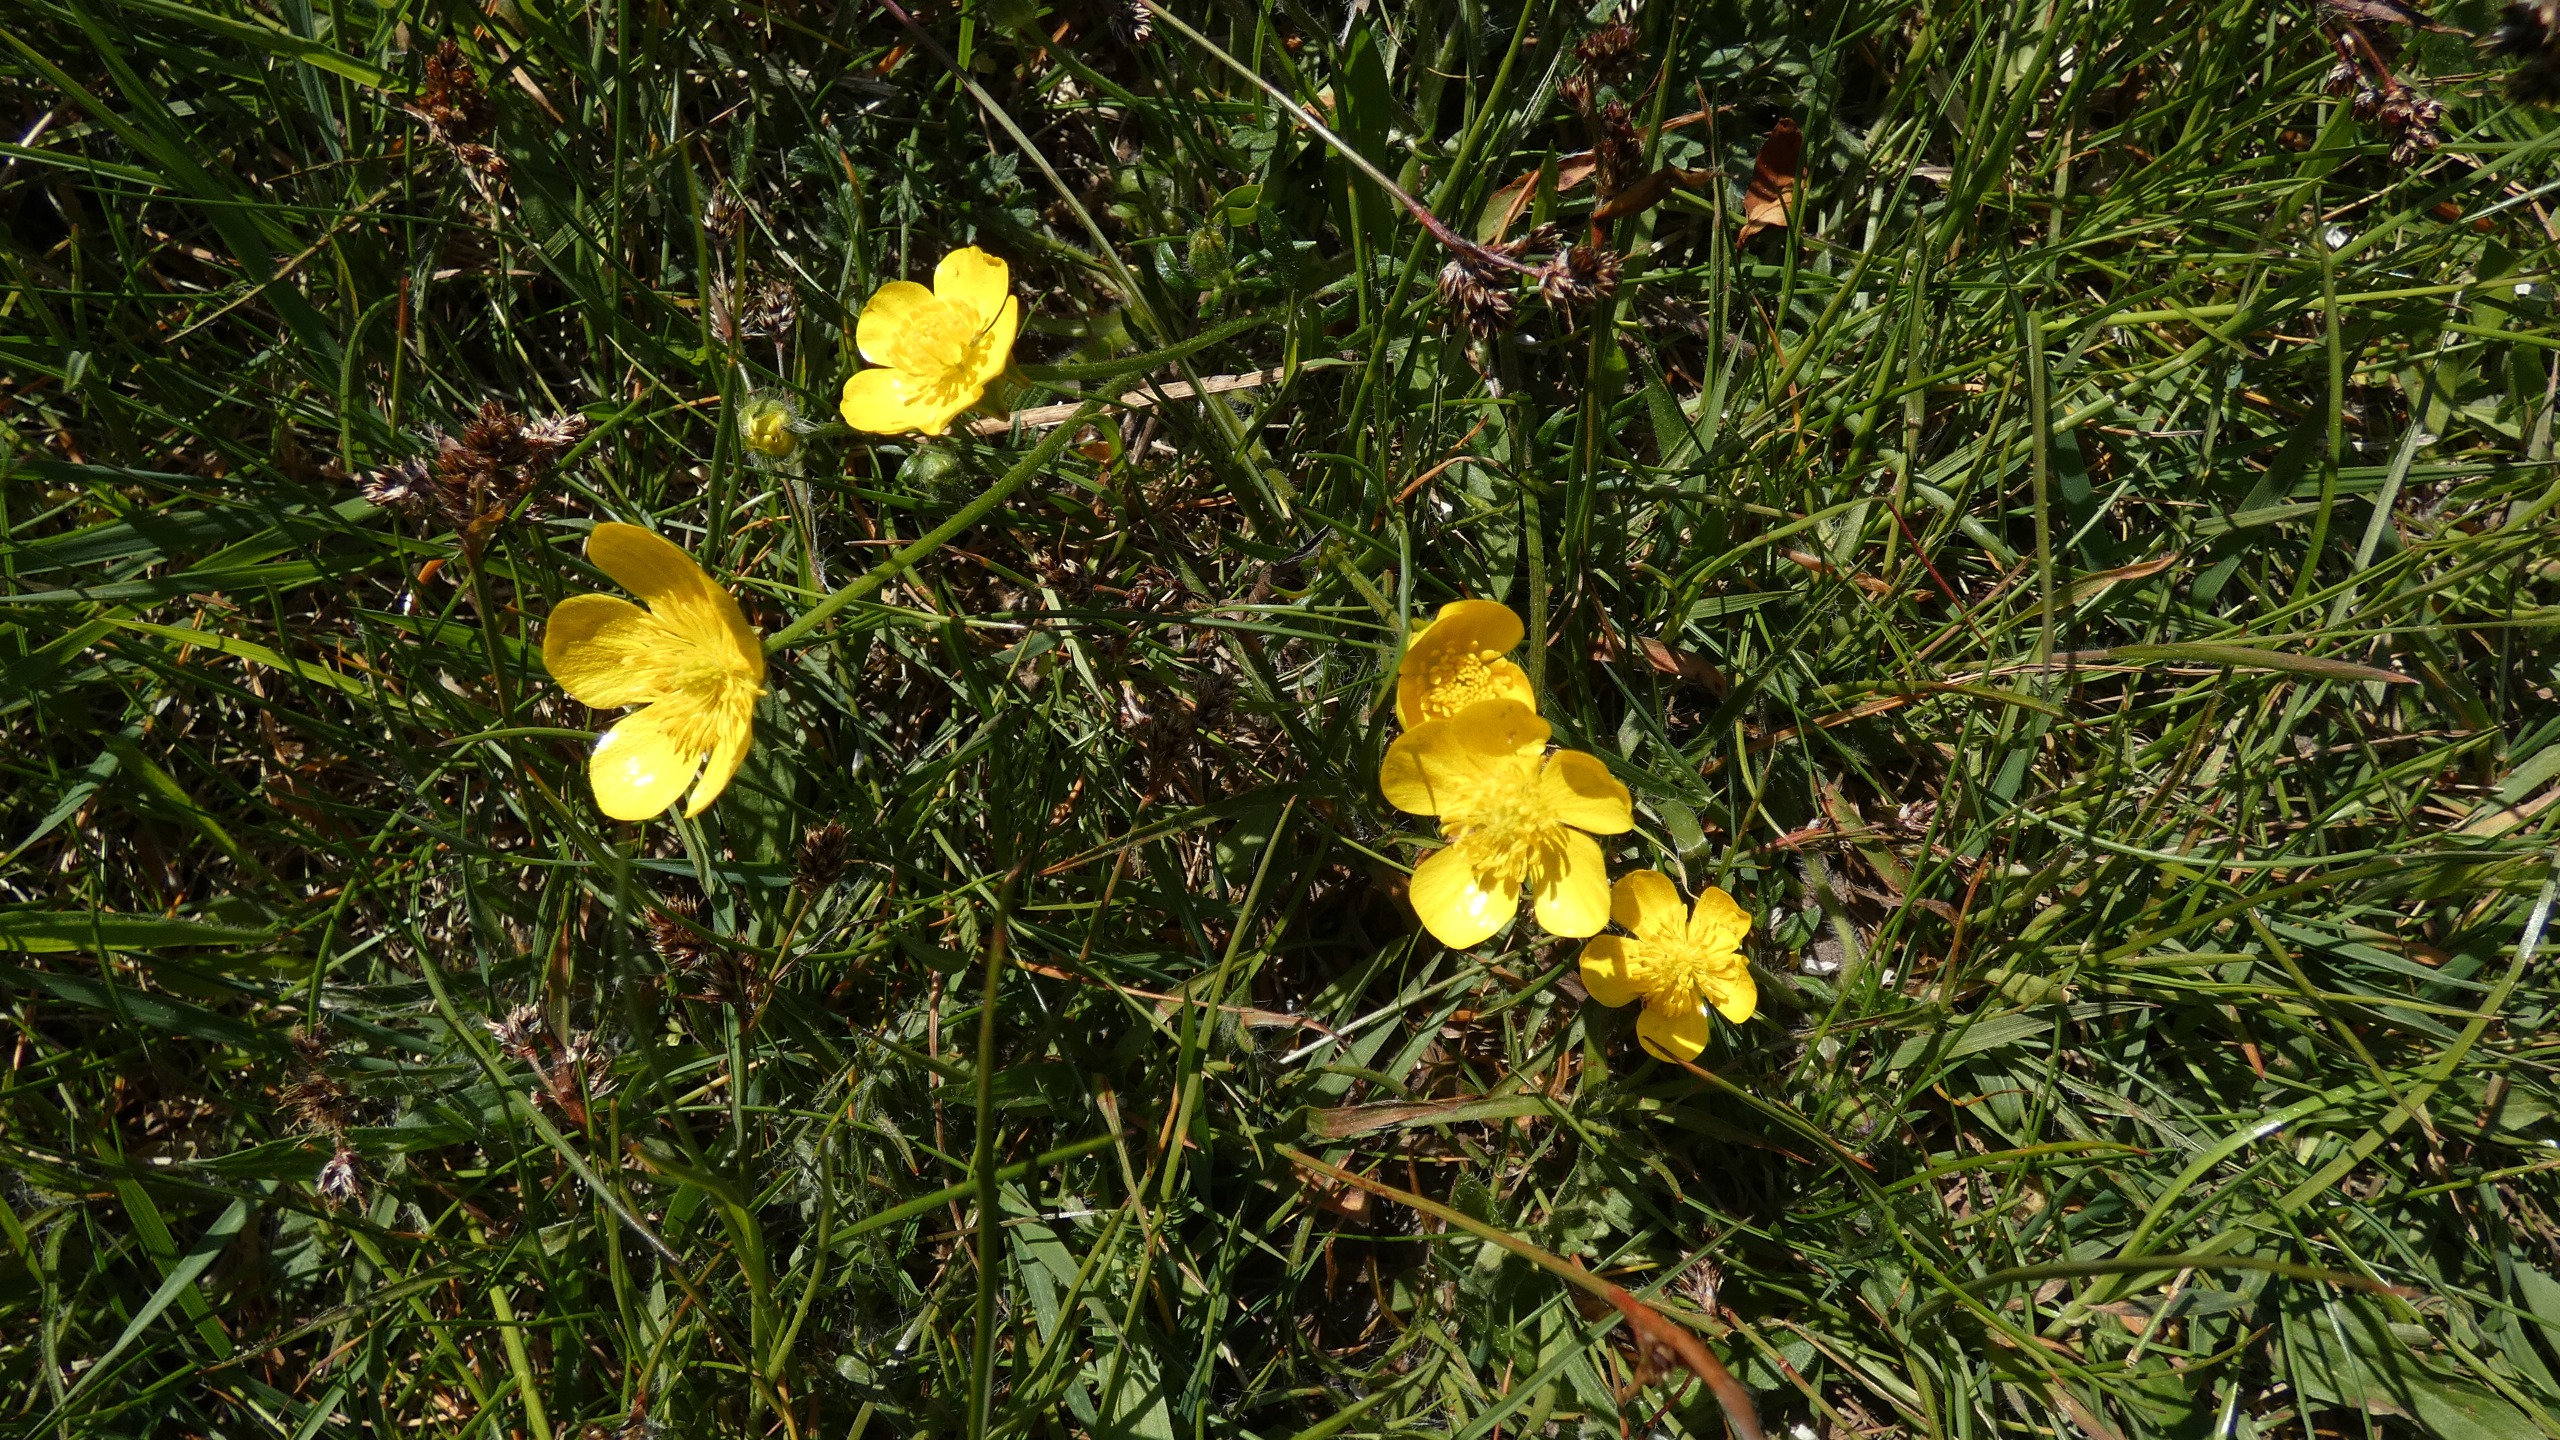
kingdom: Plantae
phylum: Tracheophyta
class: Magnoliopsida
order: Ranunculales
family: Ranunculaceae
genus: Ranunculus
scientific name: Ranunculus bulbosus
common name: Knold-ranunkel
